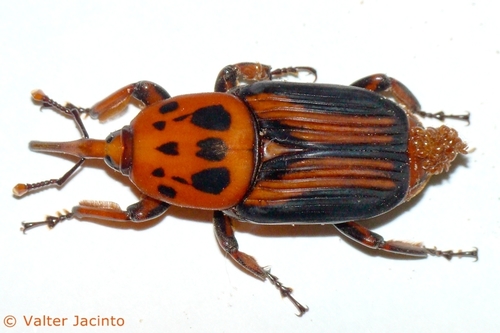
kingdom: Animalia
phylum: Arthropoda
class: Insecta
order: Coleoptera
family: Dryophthoridae
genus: Rhynchophorus
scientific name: Rhynchophorus ferrugineus
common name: Red palm weevil
